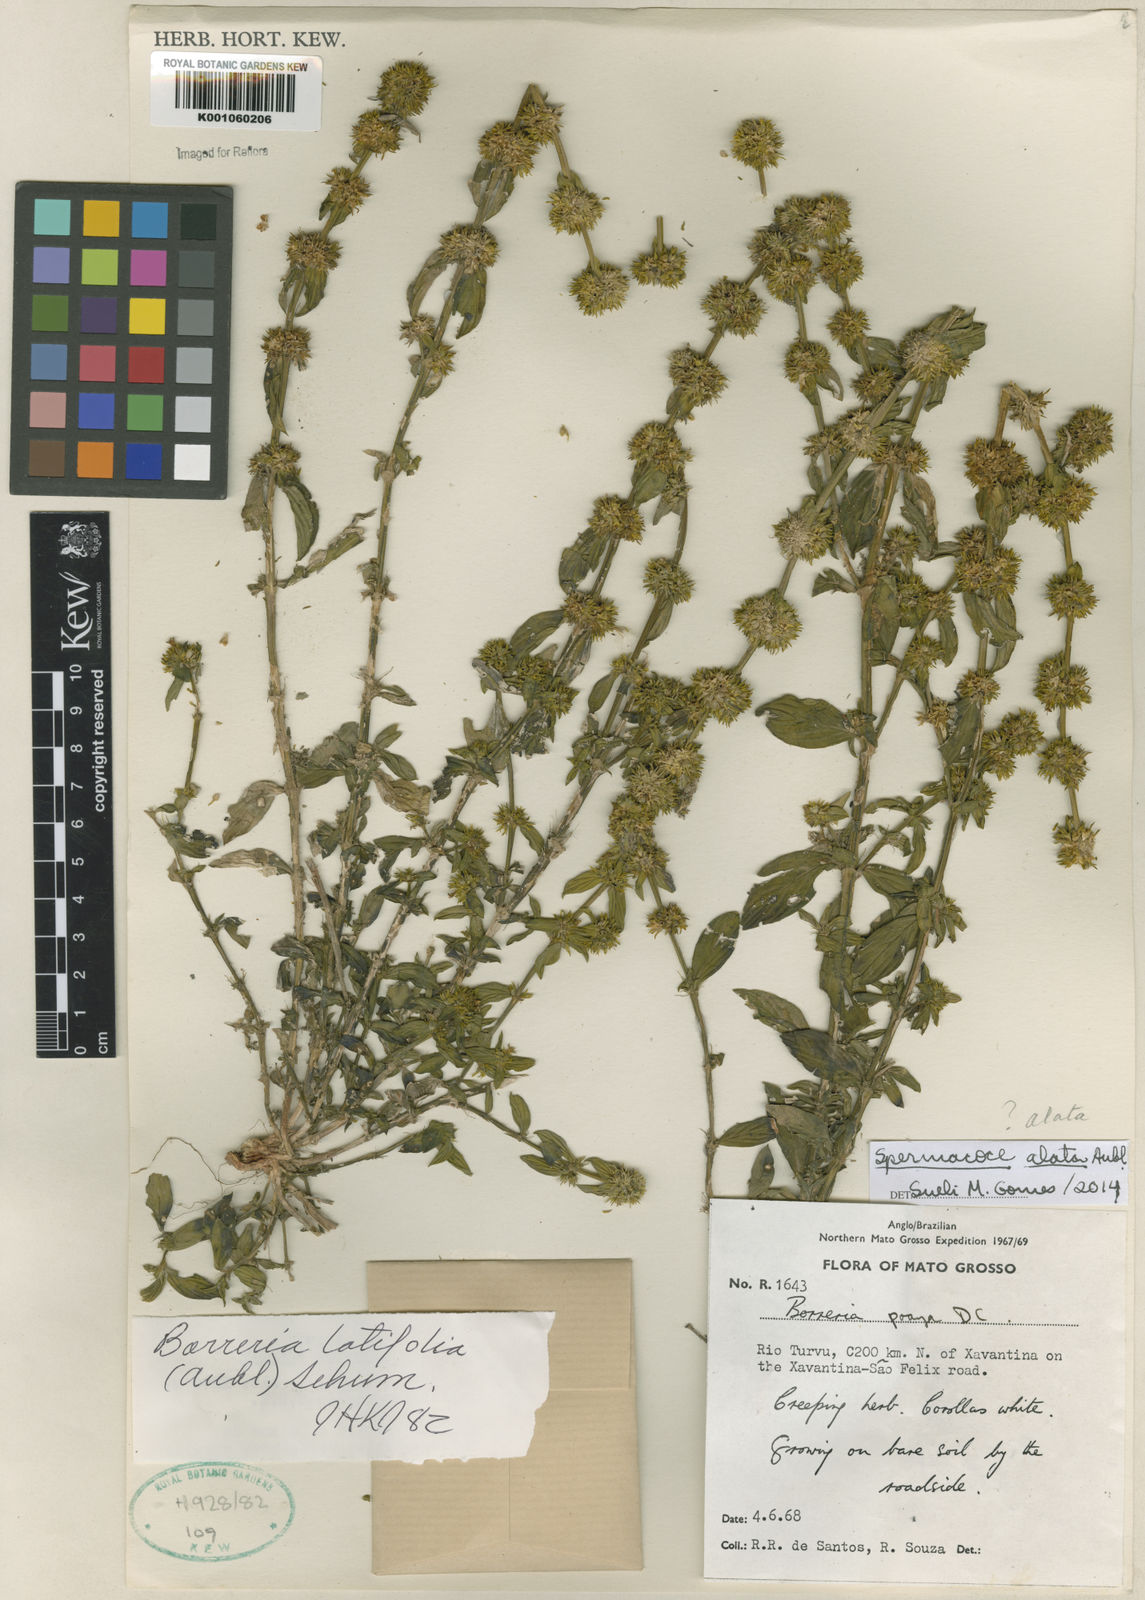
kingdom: Plantae
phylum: Tracheophyta
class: Magnoliopsida
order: Gentianales
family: Rubiaceae
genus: Spermacoce
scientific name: Spermacoce
